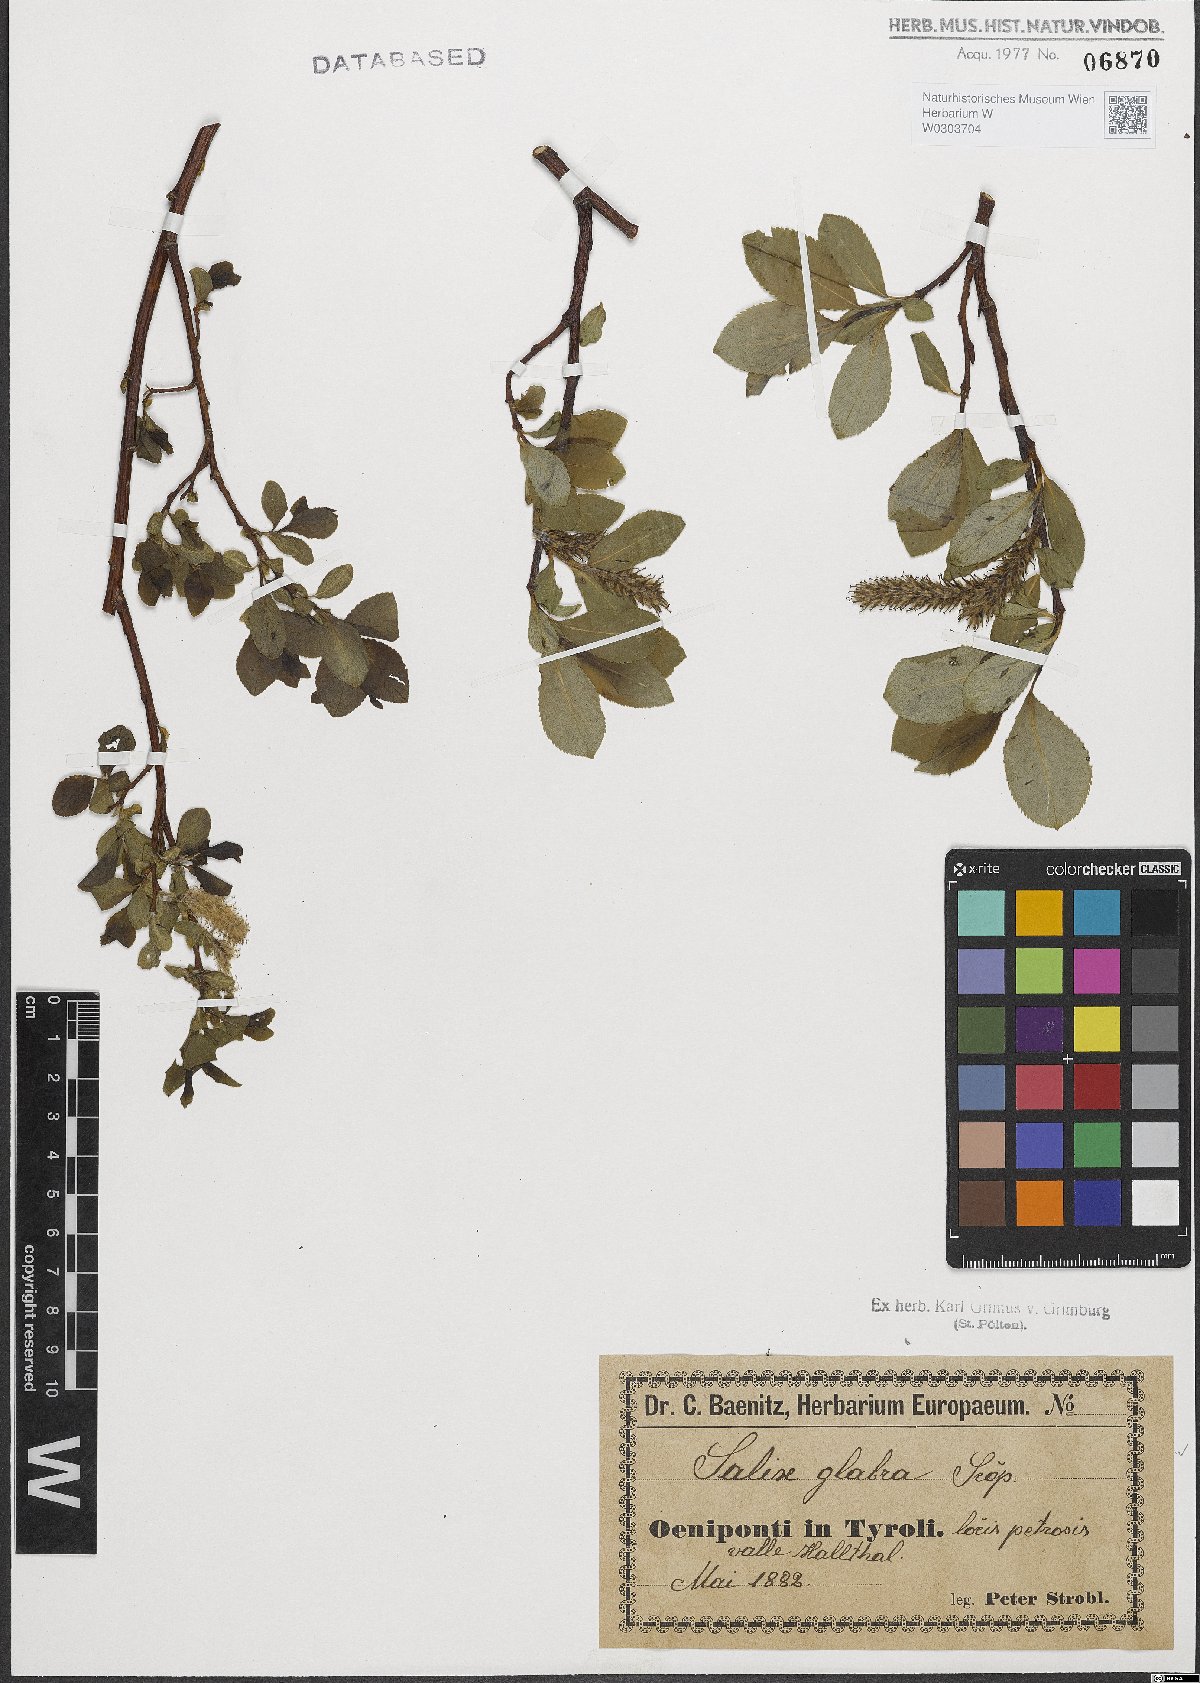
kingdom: Plantae
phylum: Tracheophyta
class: Magnoliopsida
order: Malpighiales
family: Salicaceae
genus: Salix
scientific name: Salix glabra
